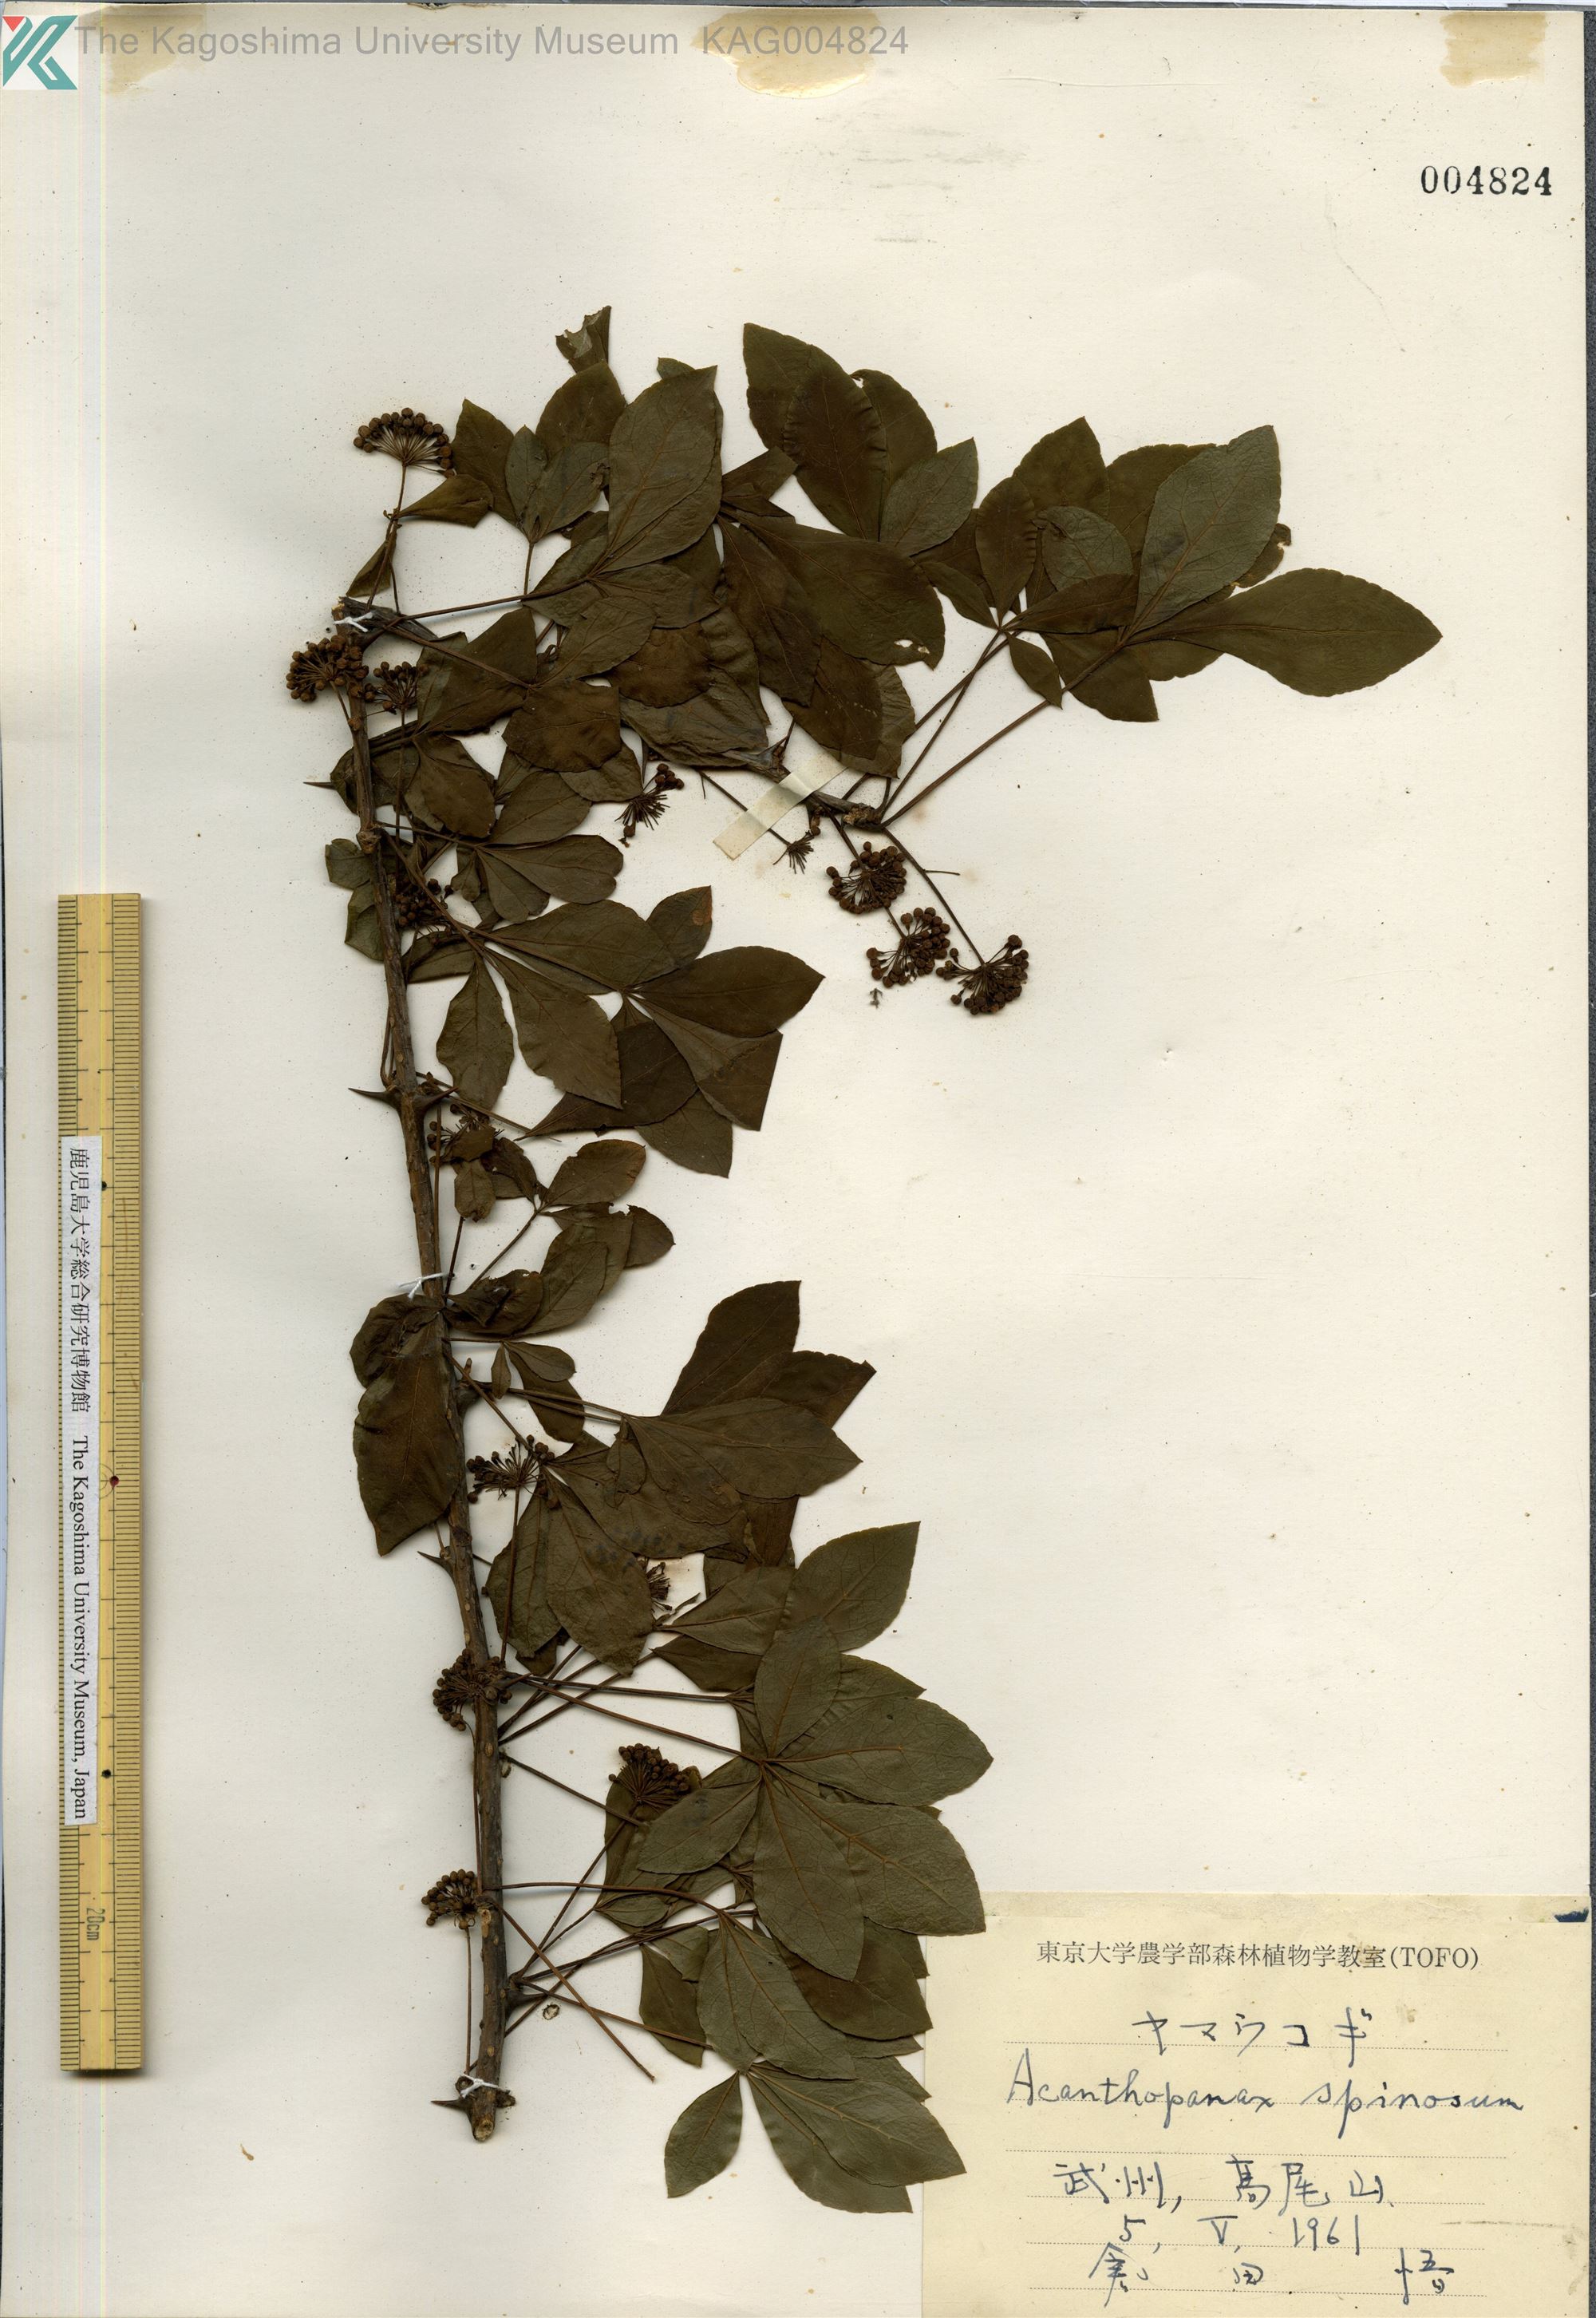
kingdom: Plantae
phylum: Tracheophyta
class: Magnoliopsida
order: Apiales
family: Araliaceae
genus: Eleutherococcus
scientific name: Eleutherococcus nodiflorus
